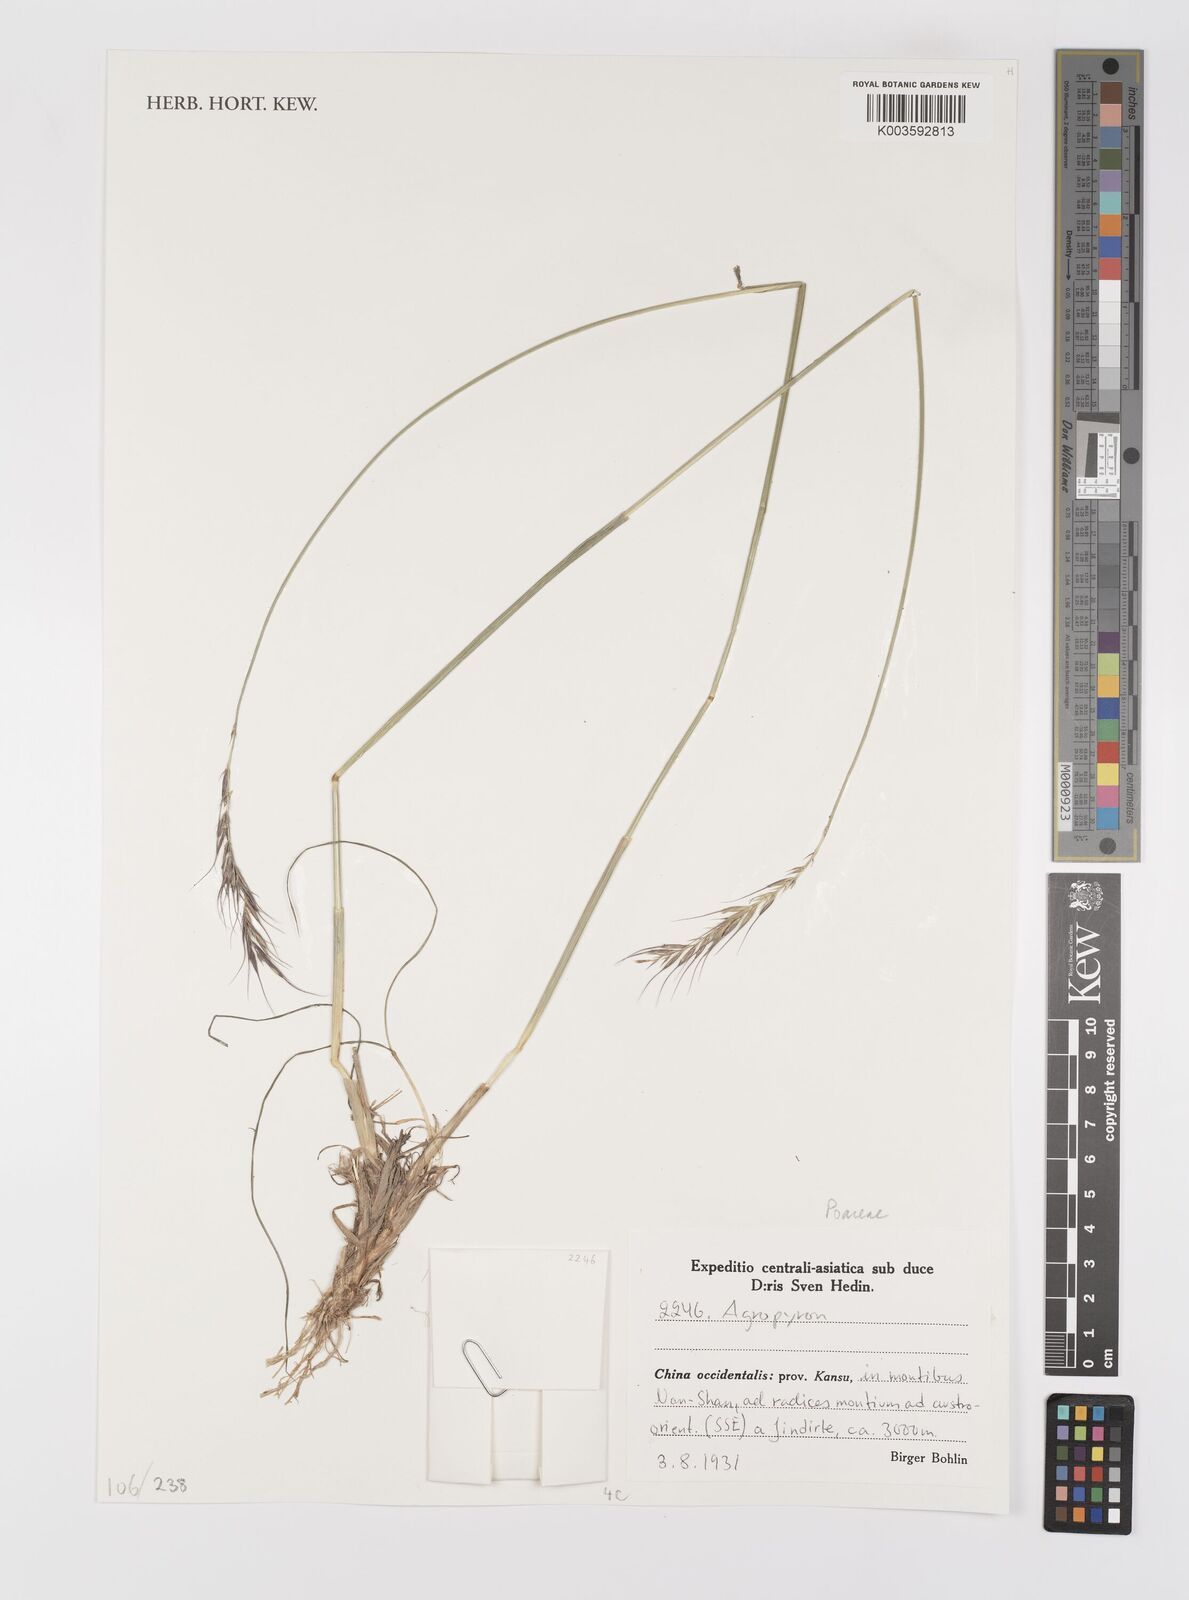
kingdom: Plantae
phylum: Tracheophyta
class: Liliopsida
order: Poales
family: Poaceae
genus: Agropyron
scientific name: Agropyron
